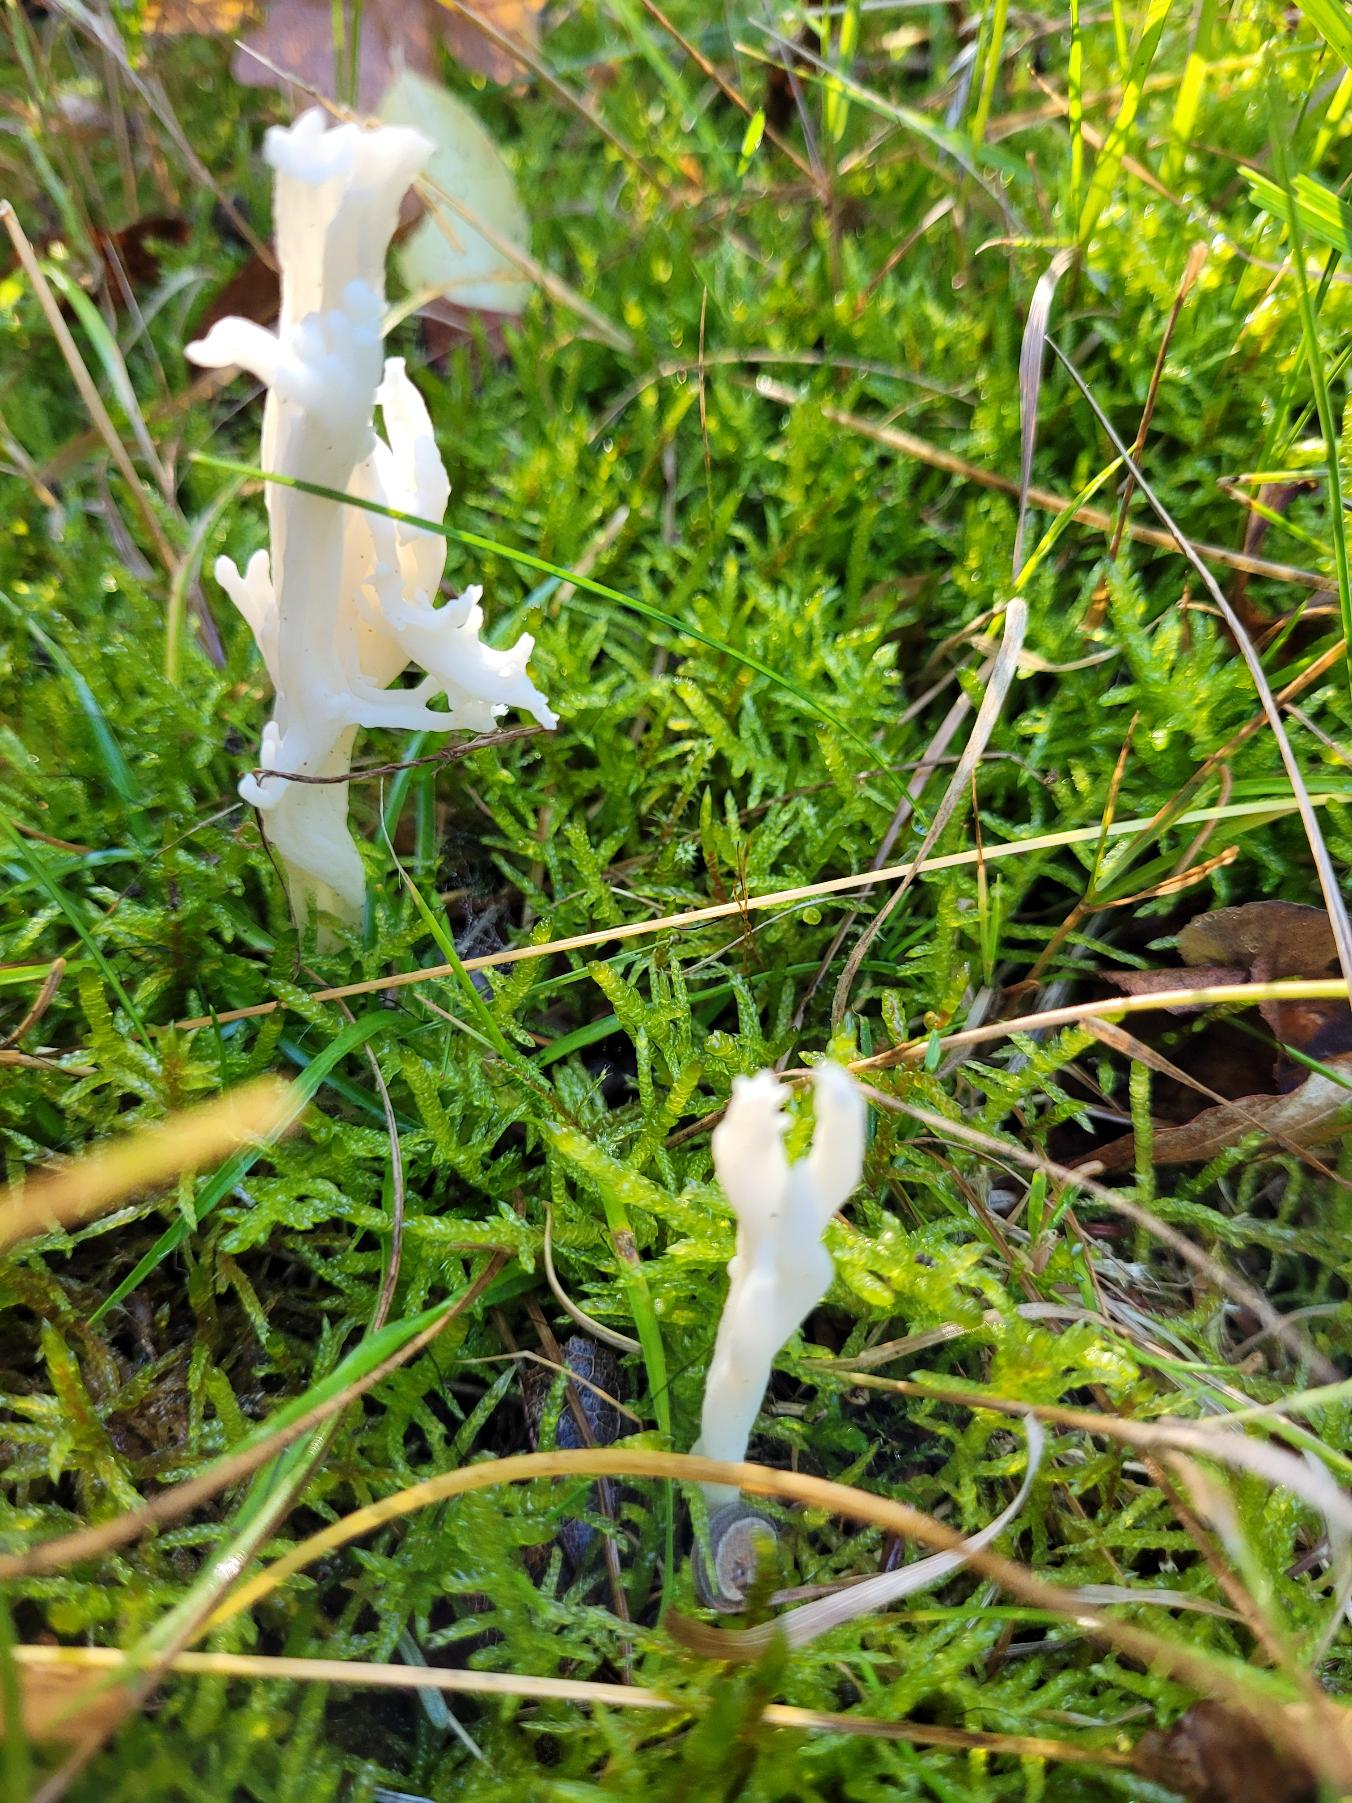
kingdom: Fungi
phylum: Basidiomycota
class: Agaricomycetes
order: Cantharellales
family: Hydnaceae
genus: Clavulina
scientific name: Clavulina coralloides
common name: Kam-troldkølle
